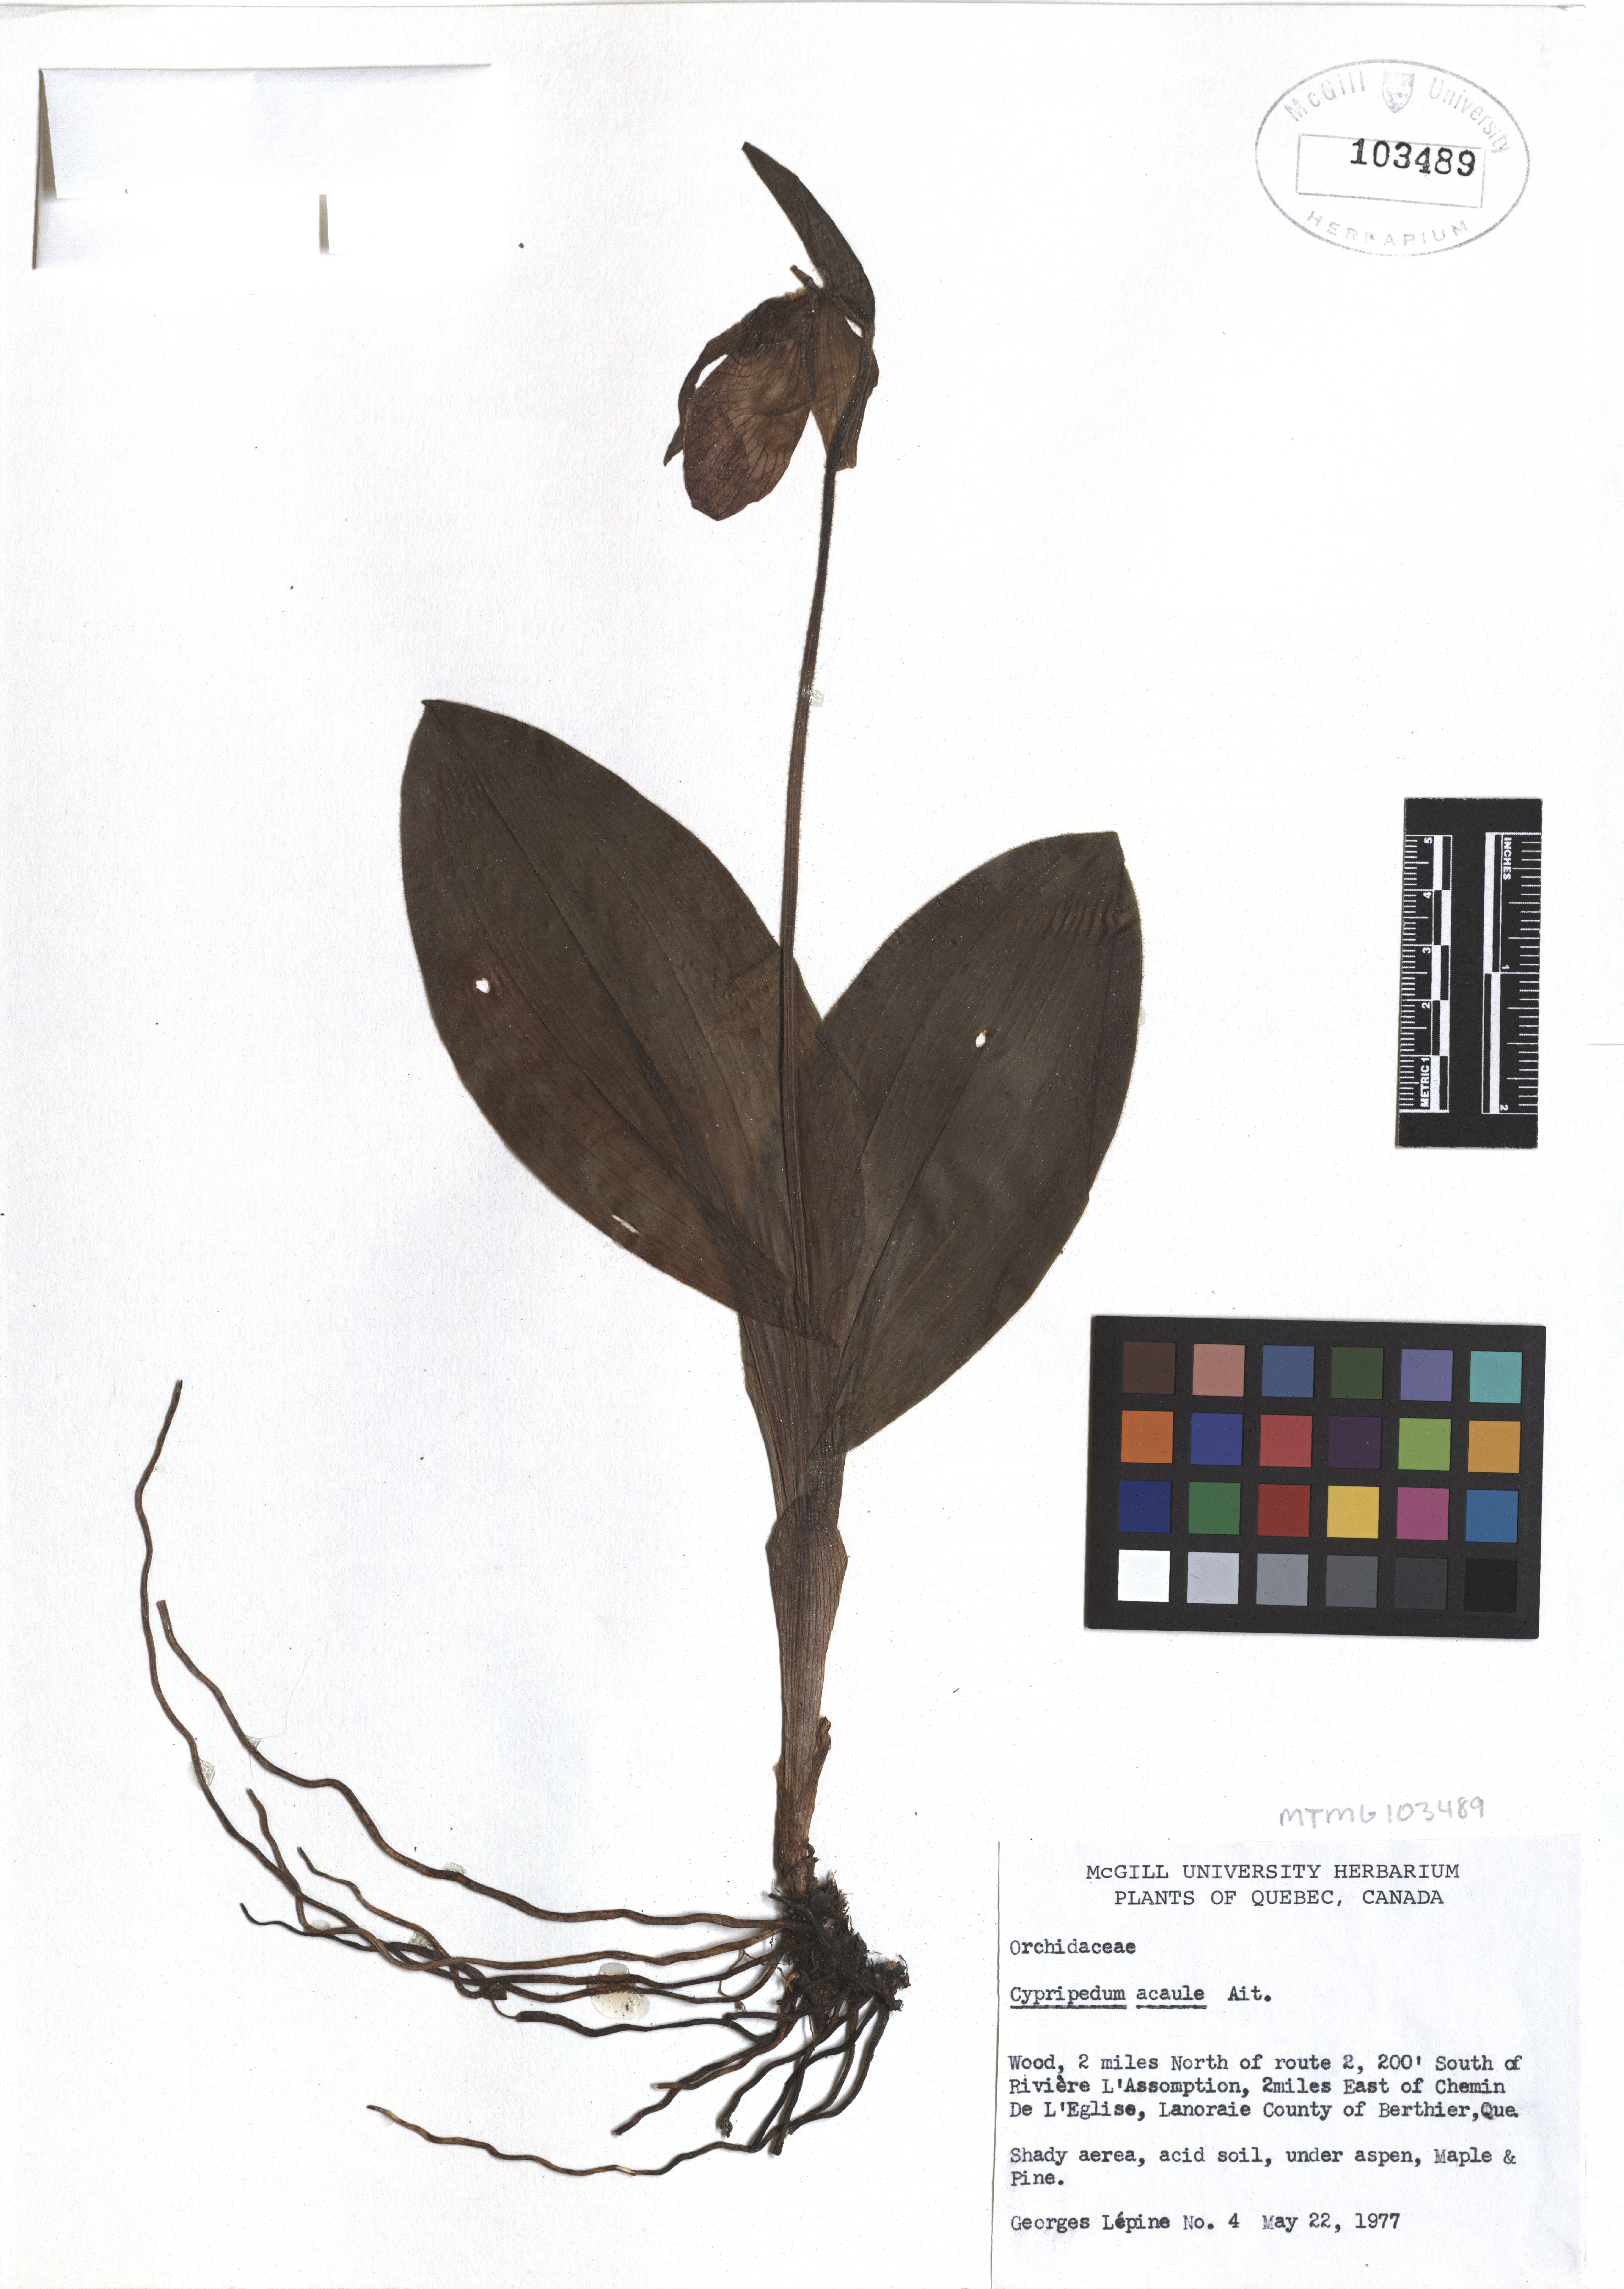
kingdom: Plantae
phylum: Tracheophyta
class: Liliopsida
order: Asparagales
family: Orchidaceae
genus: Cypripedium
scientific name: Cypripedium acaule
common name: Pink lady's-slipper
